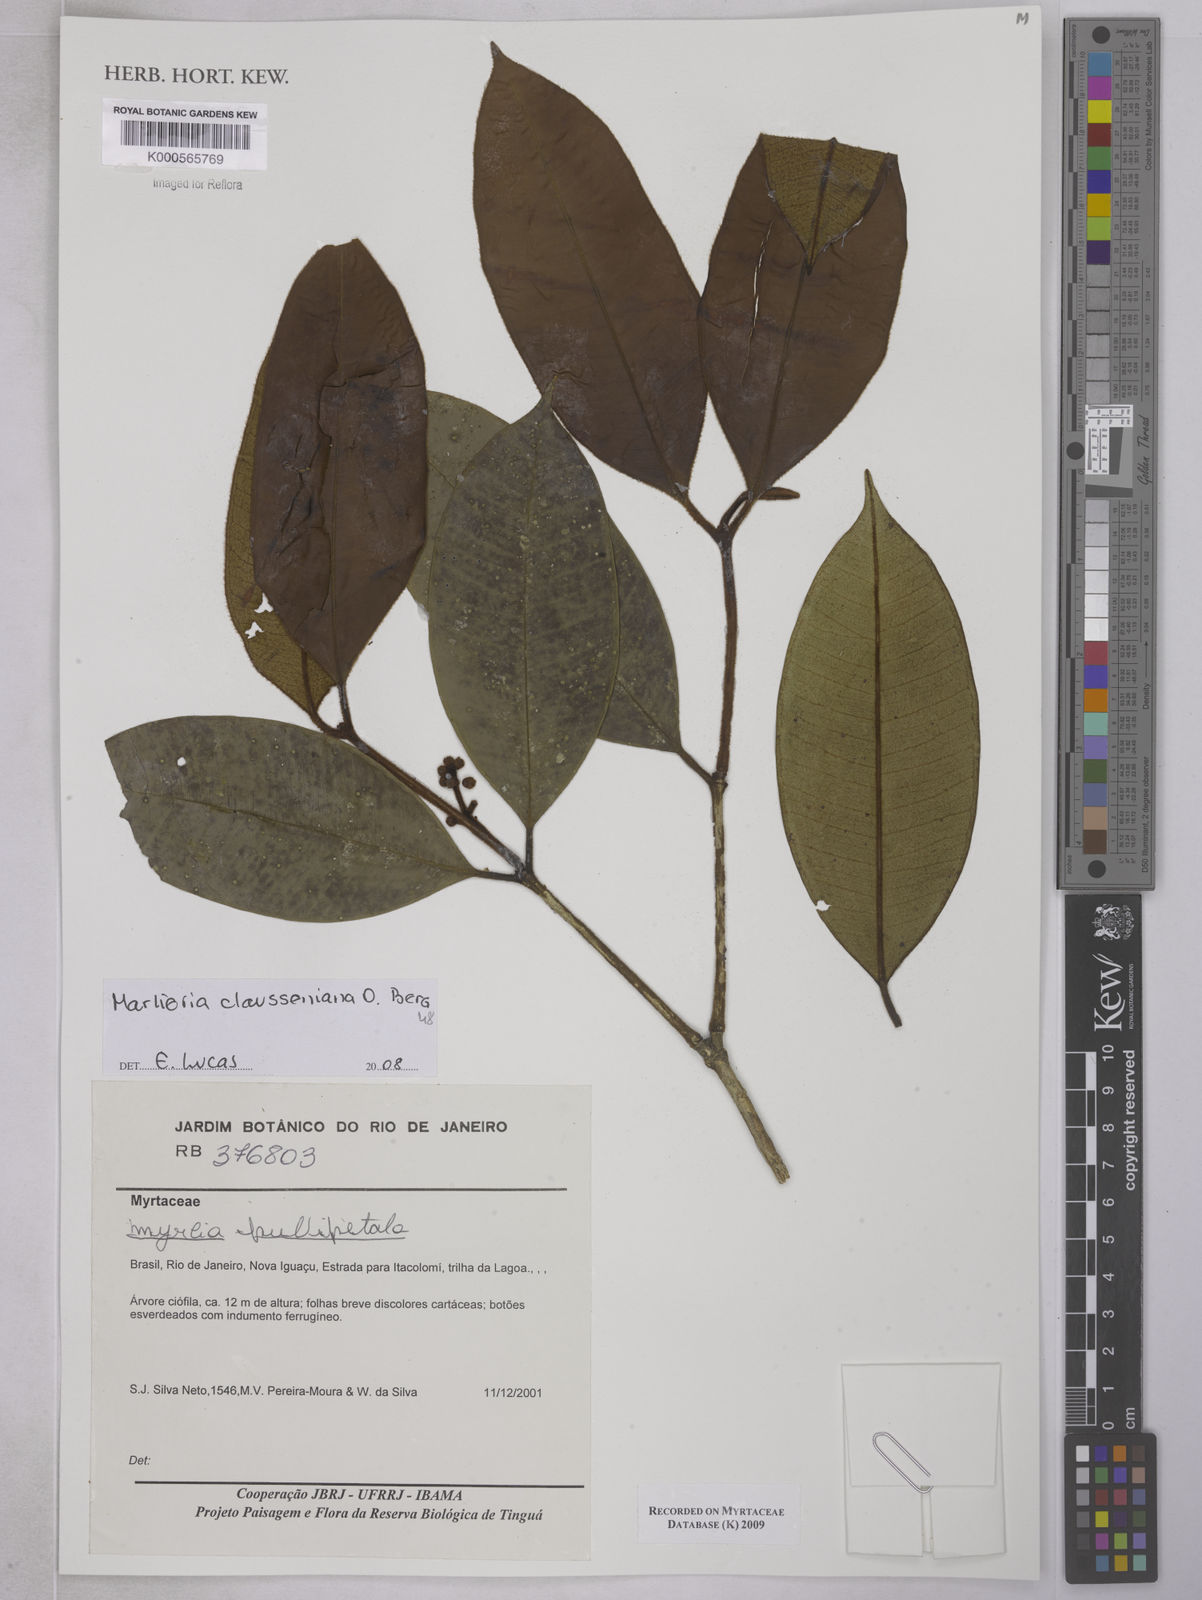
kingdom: Plantae
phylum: Tracheophyta
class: Magnoliopsida
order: Myrtales
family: Myrtaceae
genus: Marlierea
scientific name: Marlierea clausseniana
